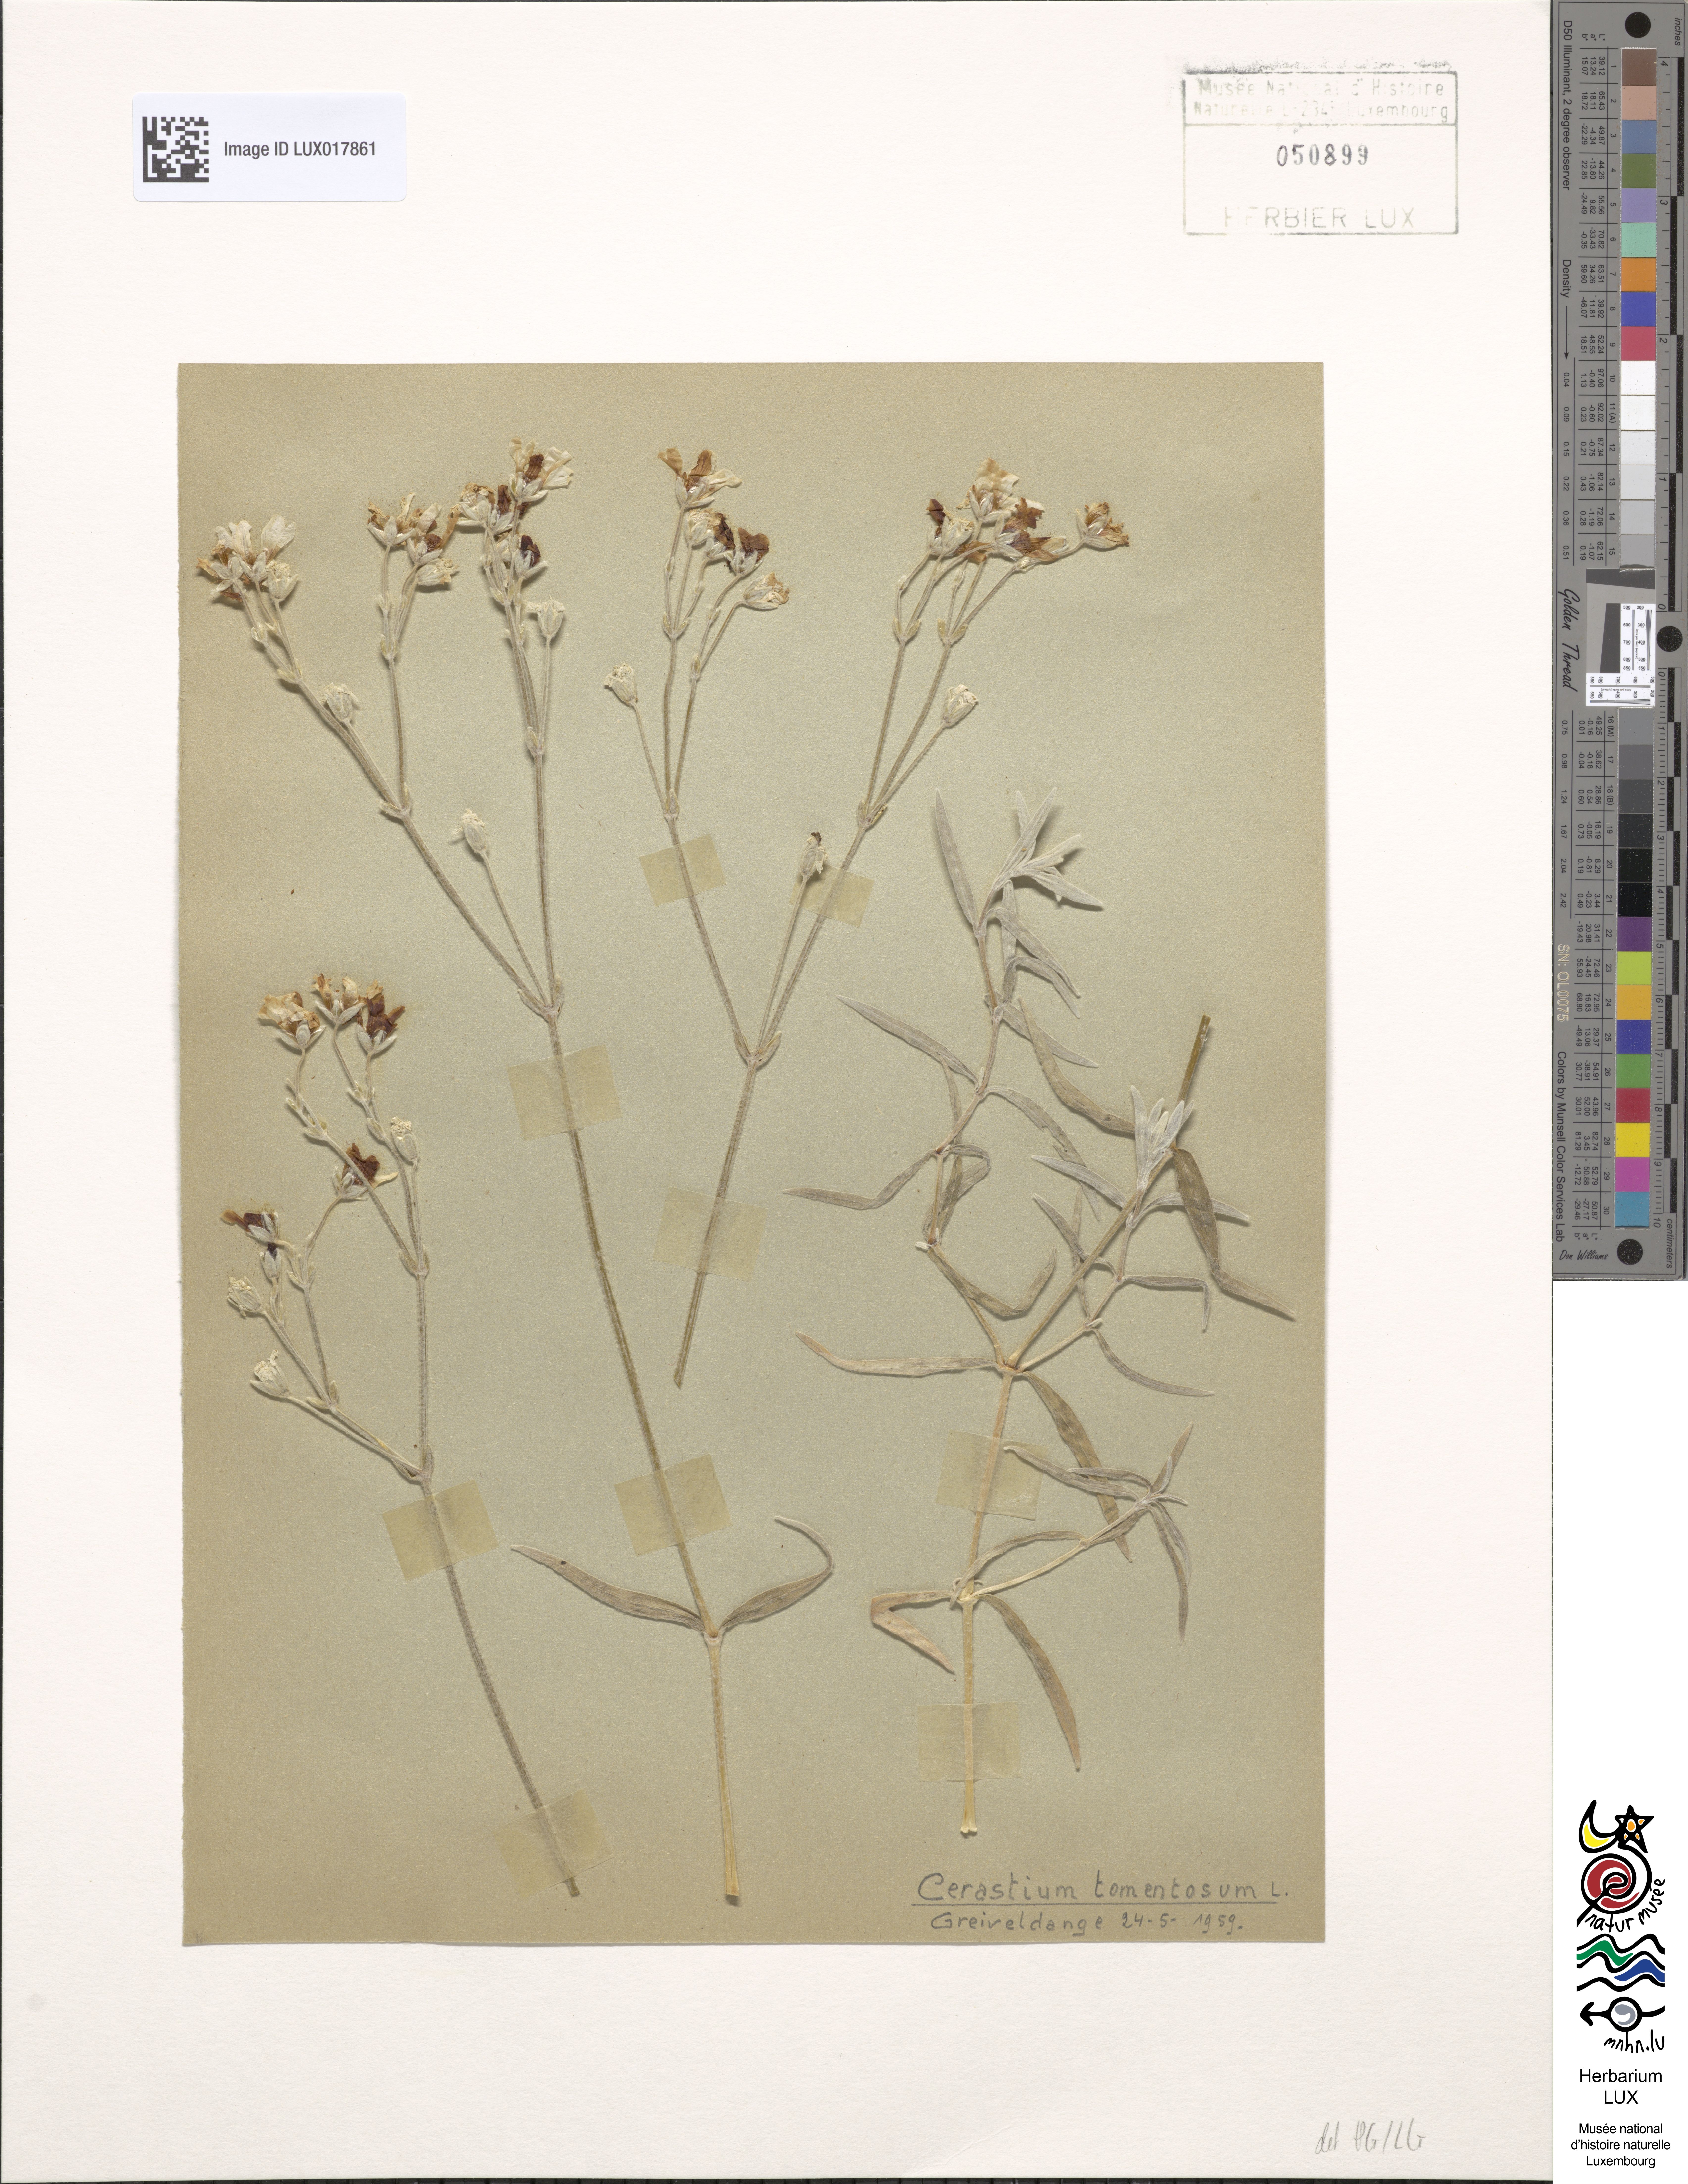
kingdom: Plantae
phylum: Tracheophyta
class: Magnoliopsida
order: Caryophyllales
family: Caryophyllaceae
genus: Cerastium
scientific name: Cerastium tomentosum
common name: Snow-in-summer
